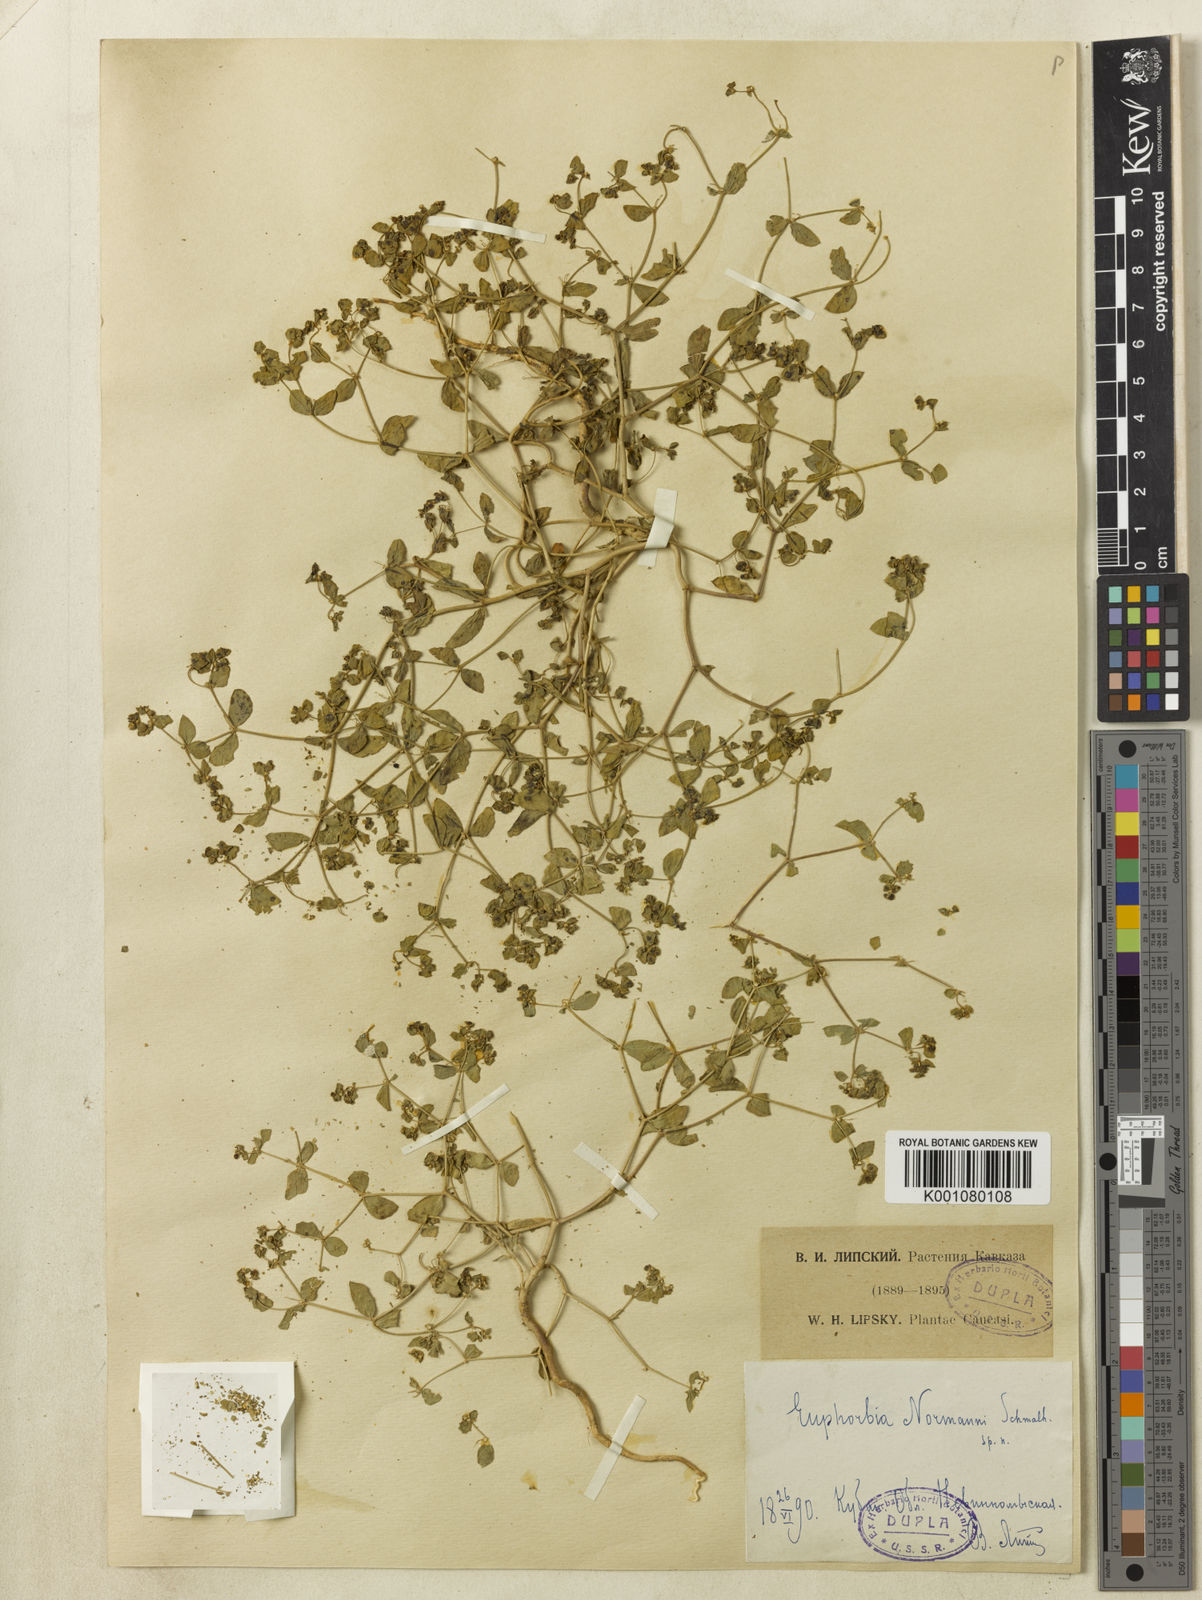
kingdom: Plantae
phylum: Tracheophyta
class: Magnoliopsida
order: Malpighiales
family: Euphorbiaceae
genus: Euphorbia
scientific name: Euphorbia normannii
